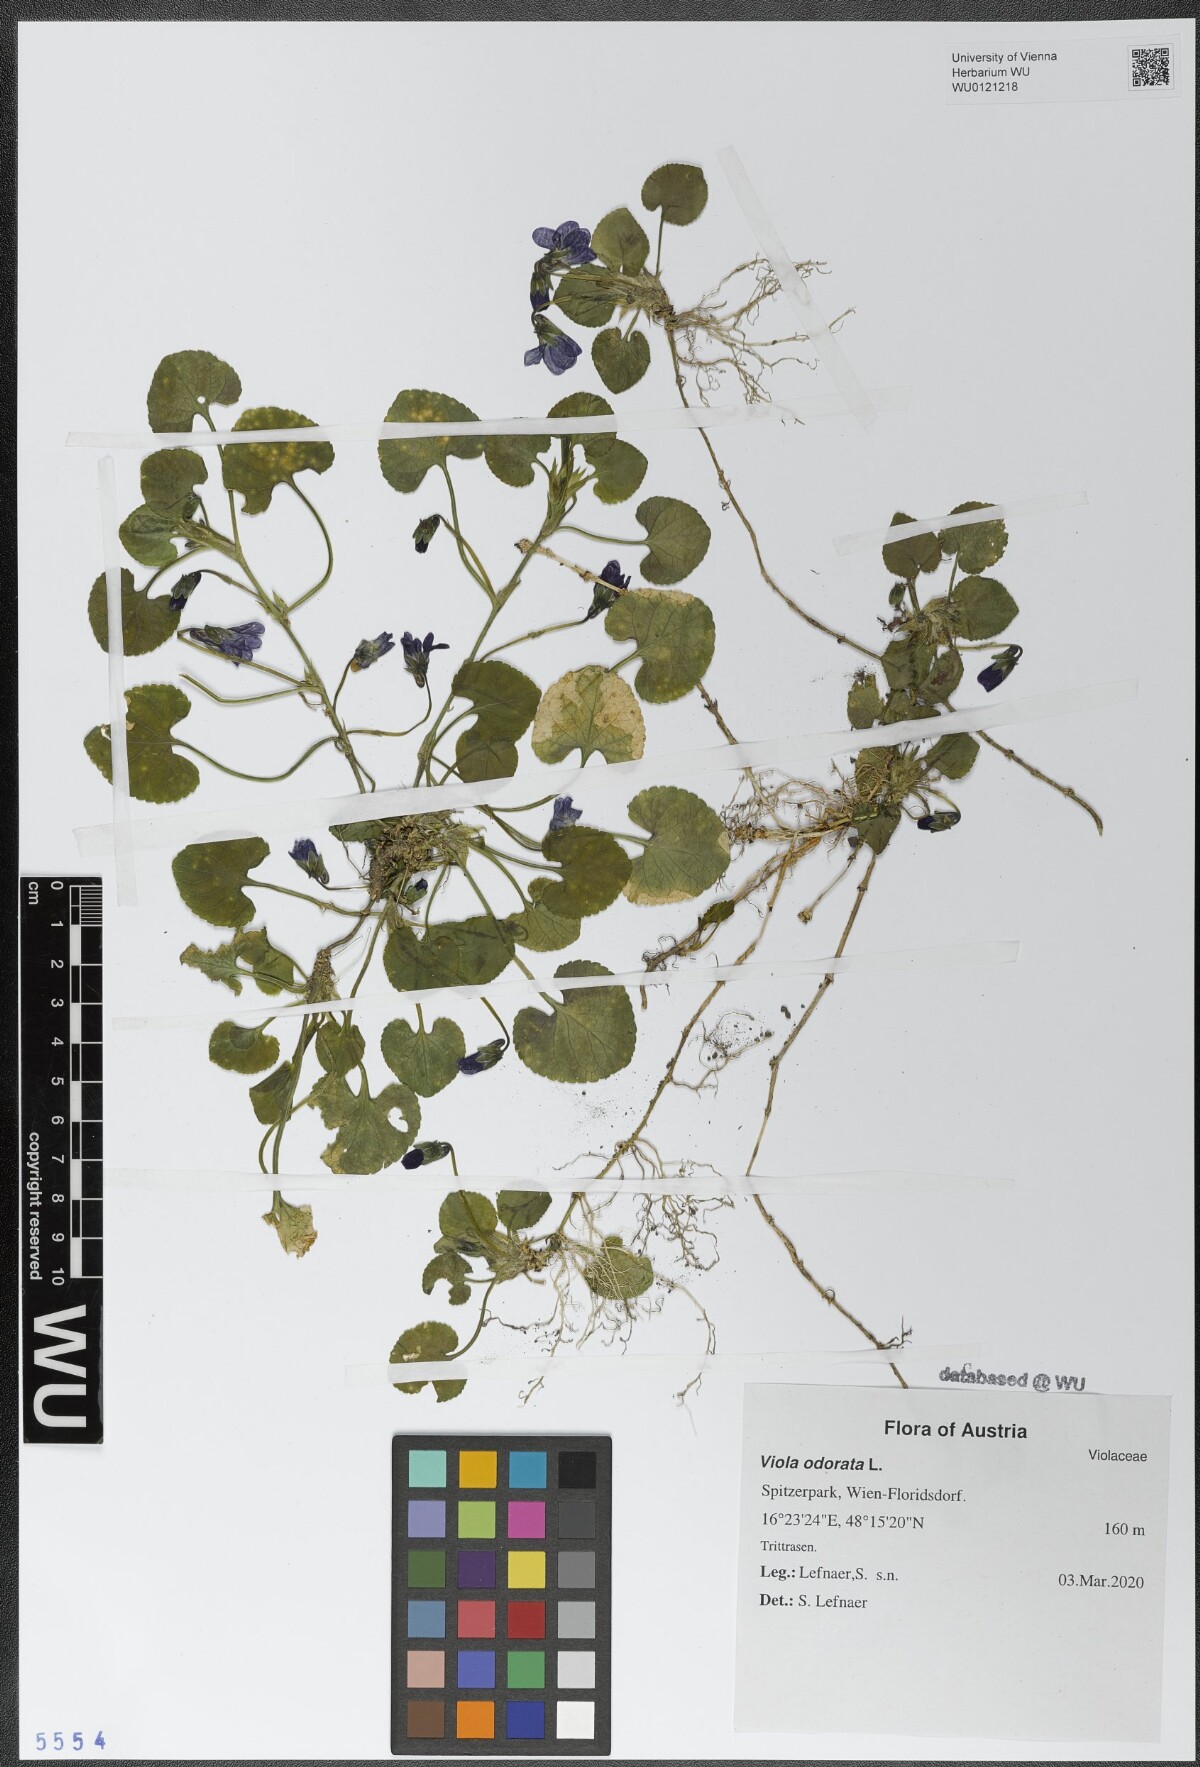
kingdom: Plantae
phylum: Tracheophyta
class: Magnoliopsida
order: Malpighiales
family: Violaceae
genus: Viola
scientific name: Viola odorata
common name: Sweet violet
